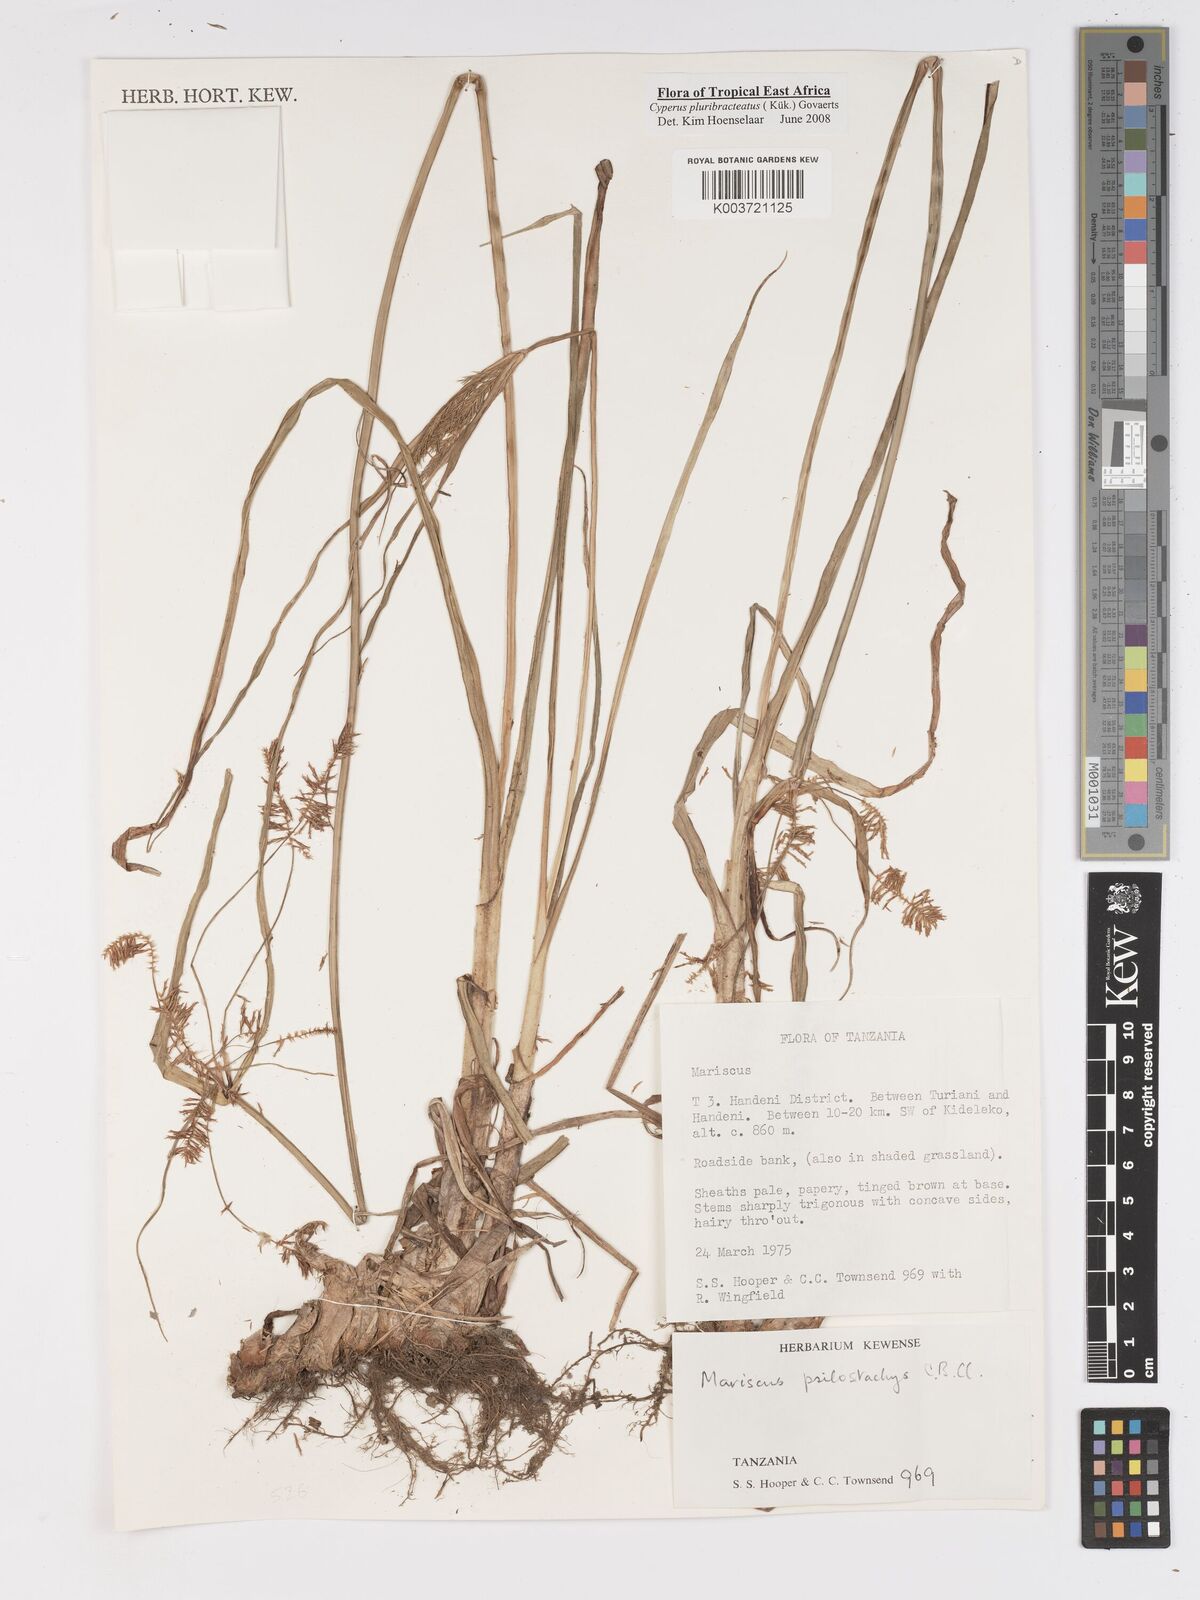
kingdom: Plantae
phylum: Tracheophyta
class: Liliopsida
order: Poales
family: Cyperaceae
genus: Cyperus
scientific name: Cyperus trigonellus
